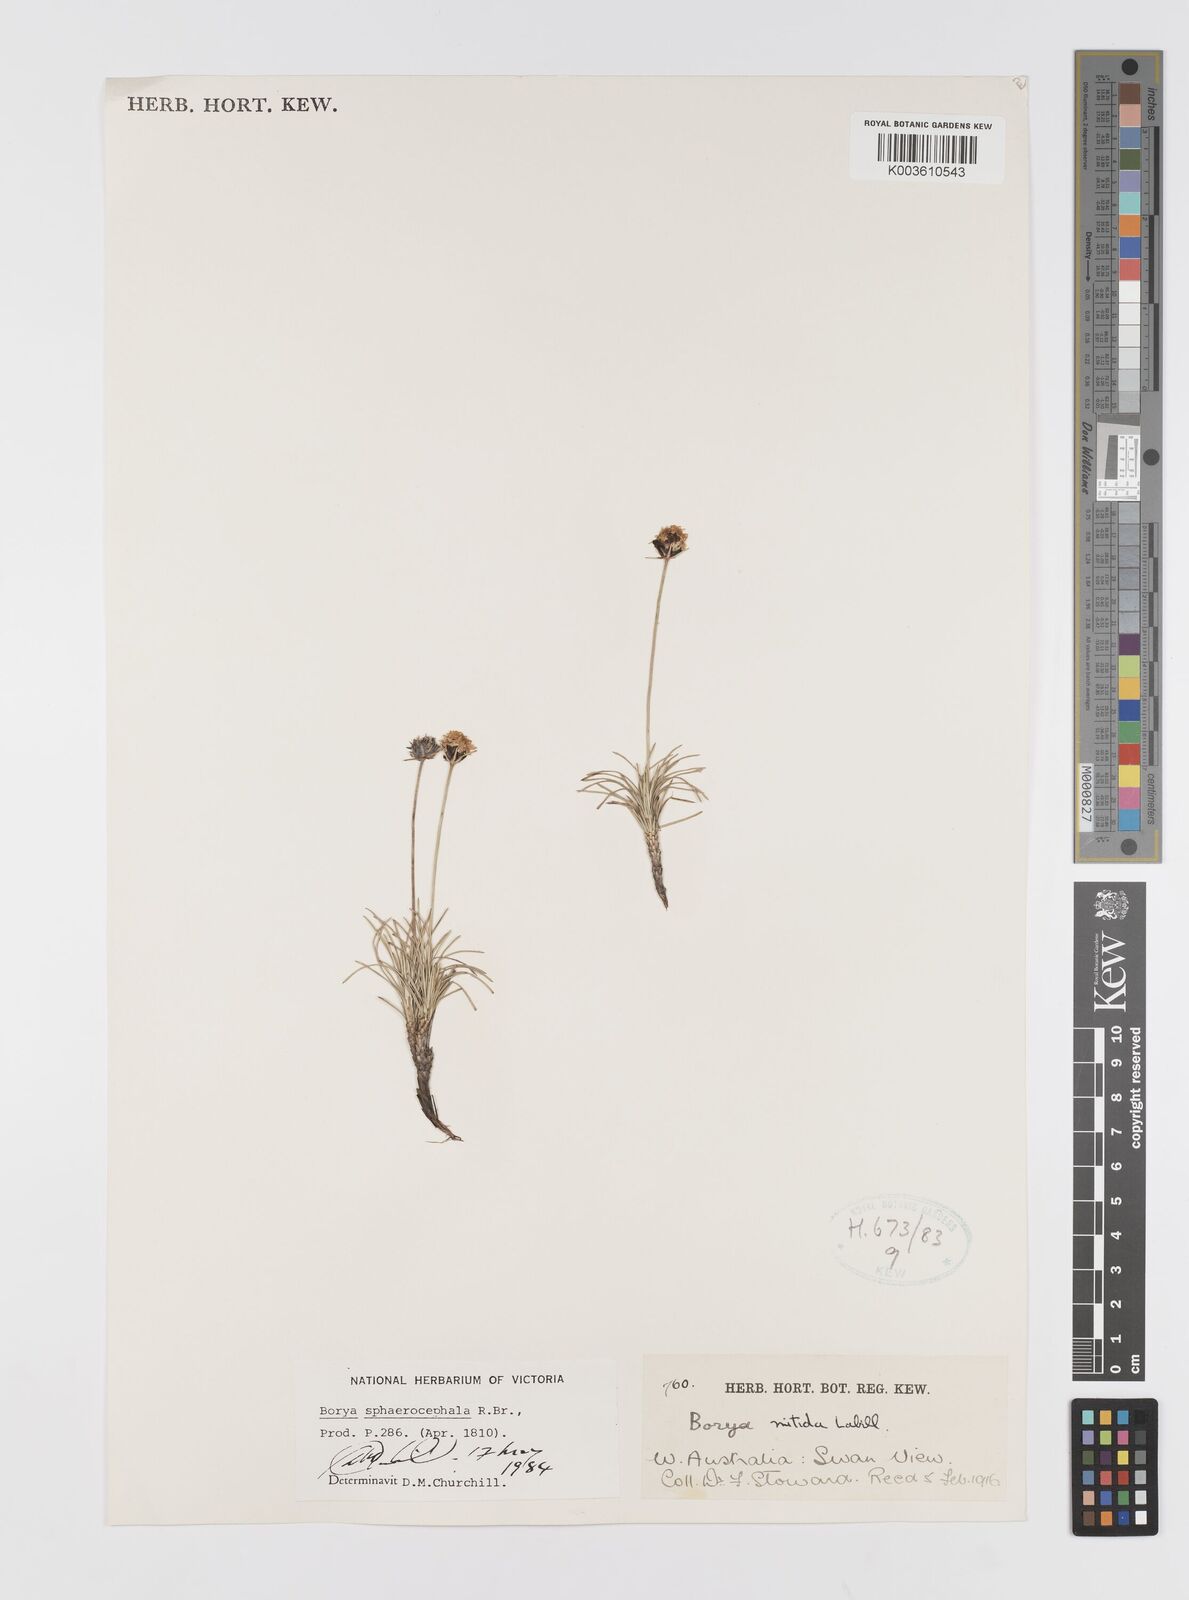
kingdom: Plantae
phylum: Tracheophyta
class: Liliopsida
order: Asparagales
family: Boryaceae
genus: Borya
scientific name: Borya sphaerocephala
